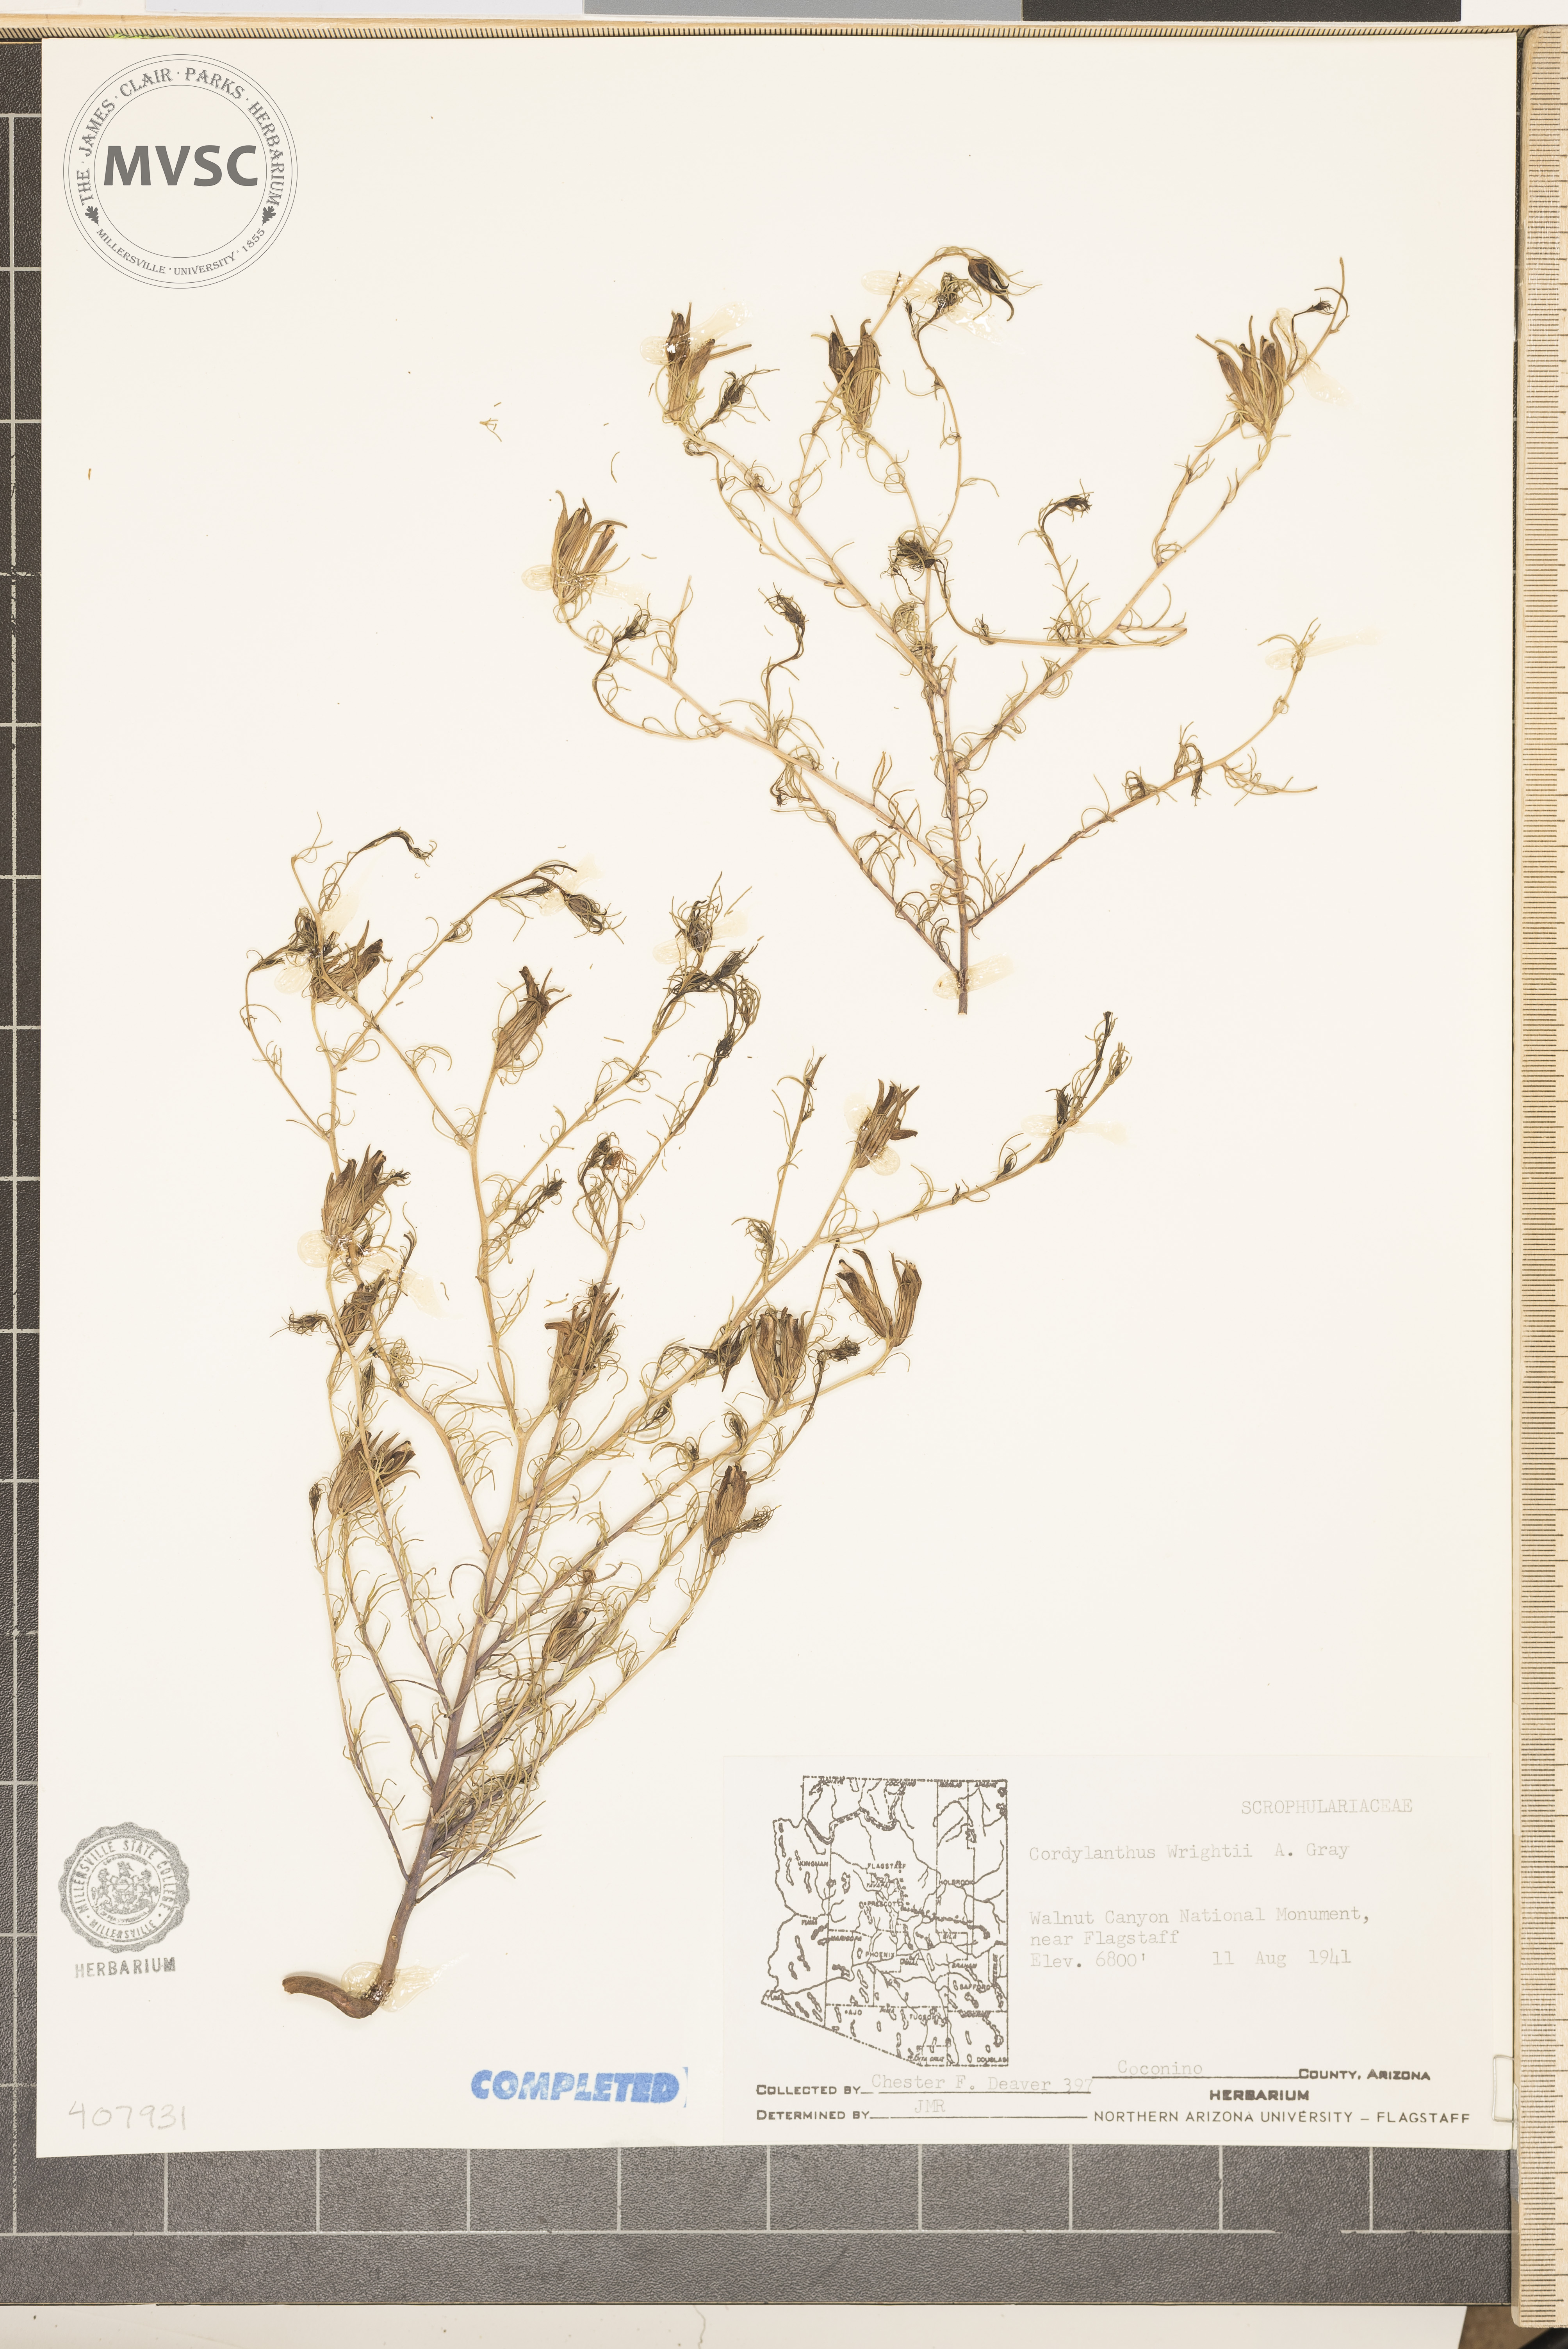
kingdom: Plantae
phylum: Tracheophyta
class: Magnoliopsida
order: Lamiales
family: Orobanchaceae
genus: Cordylanthus
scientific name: Cordylanthus wrightii
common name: Wright's birdsbeak
